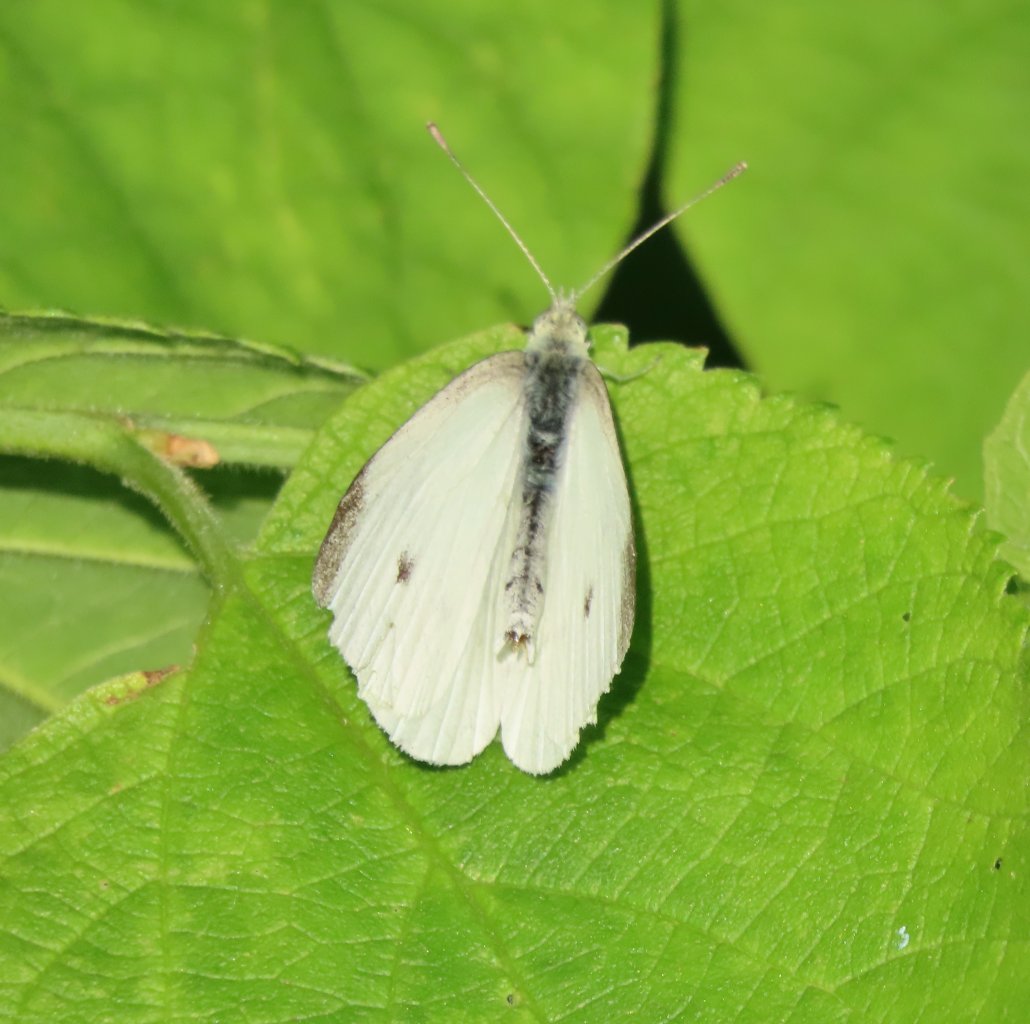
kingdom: Animalia
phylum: Arthropoda
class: Insecta
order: Lepidoptera
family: Pieridae
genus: Pieris
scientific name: Pieris rapae
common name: Cabbage White
